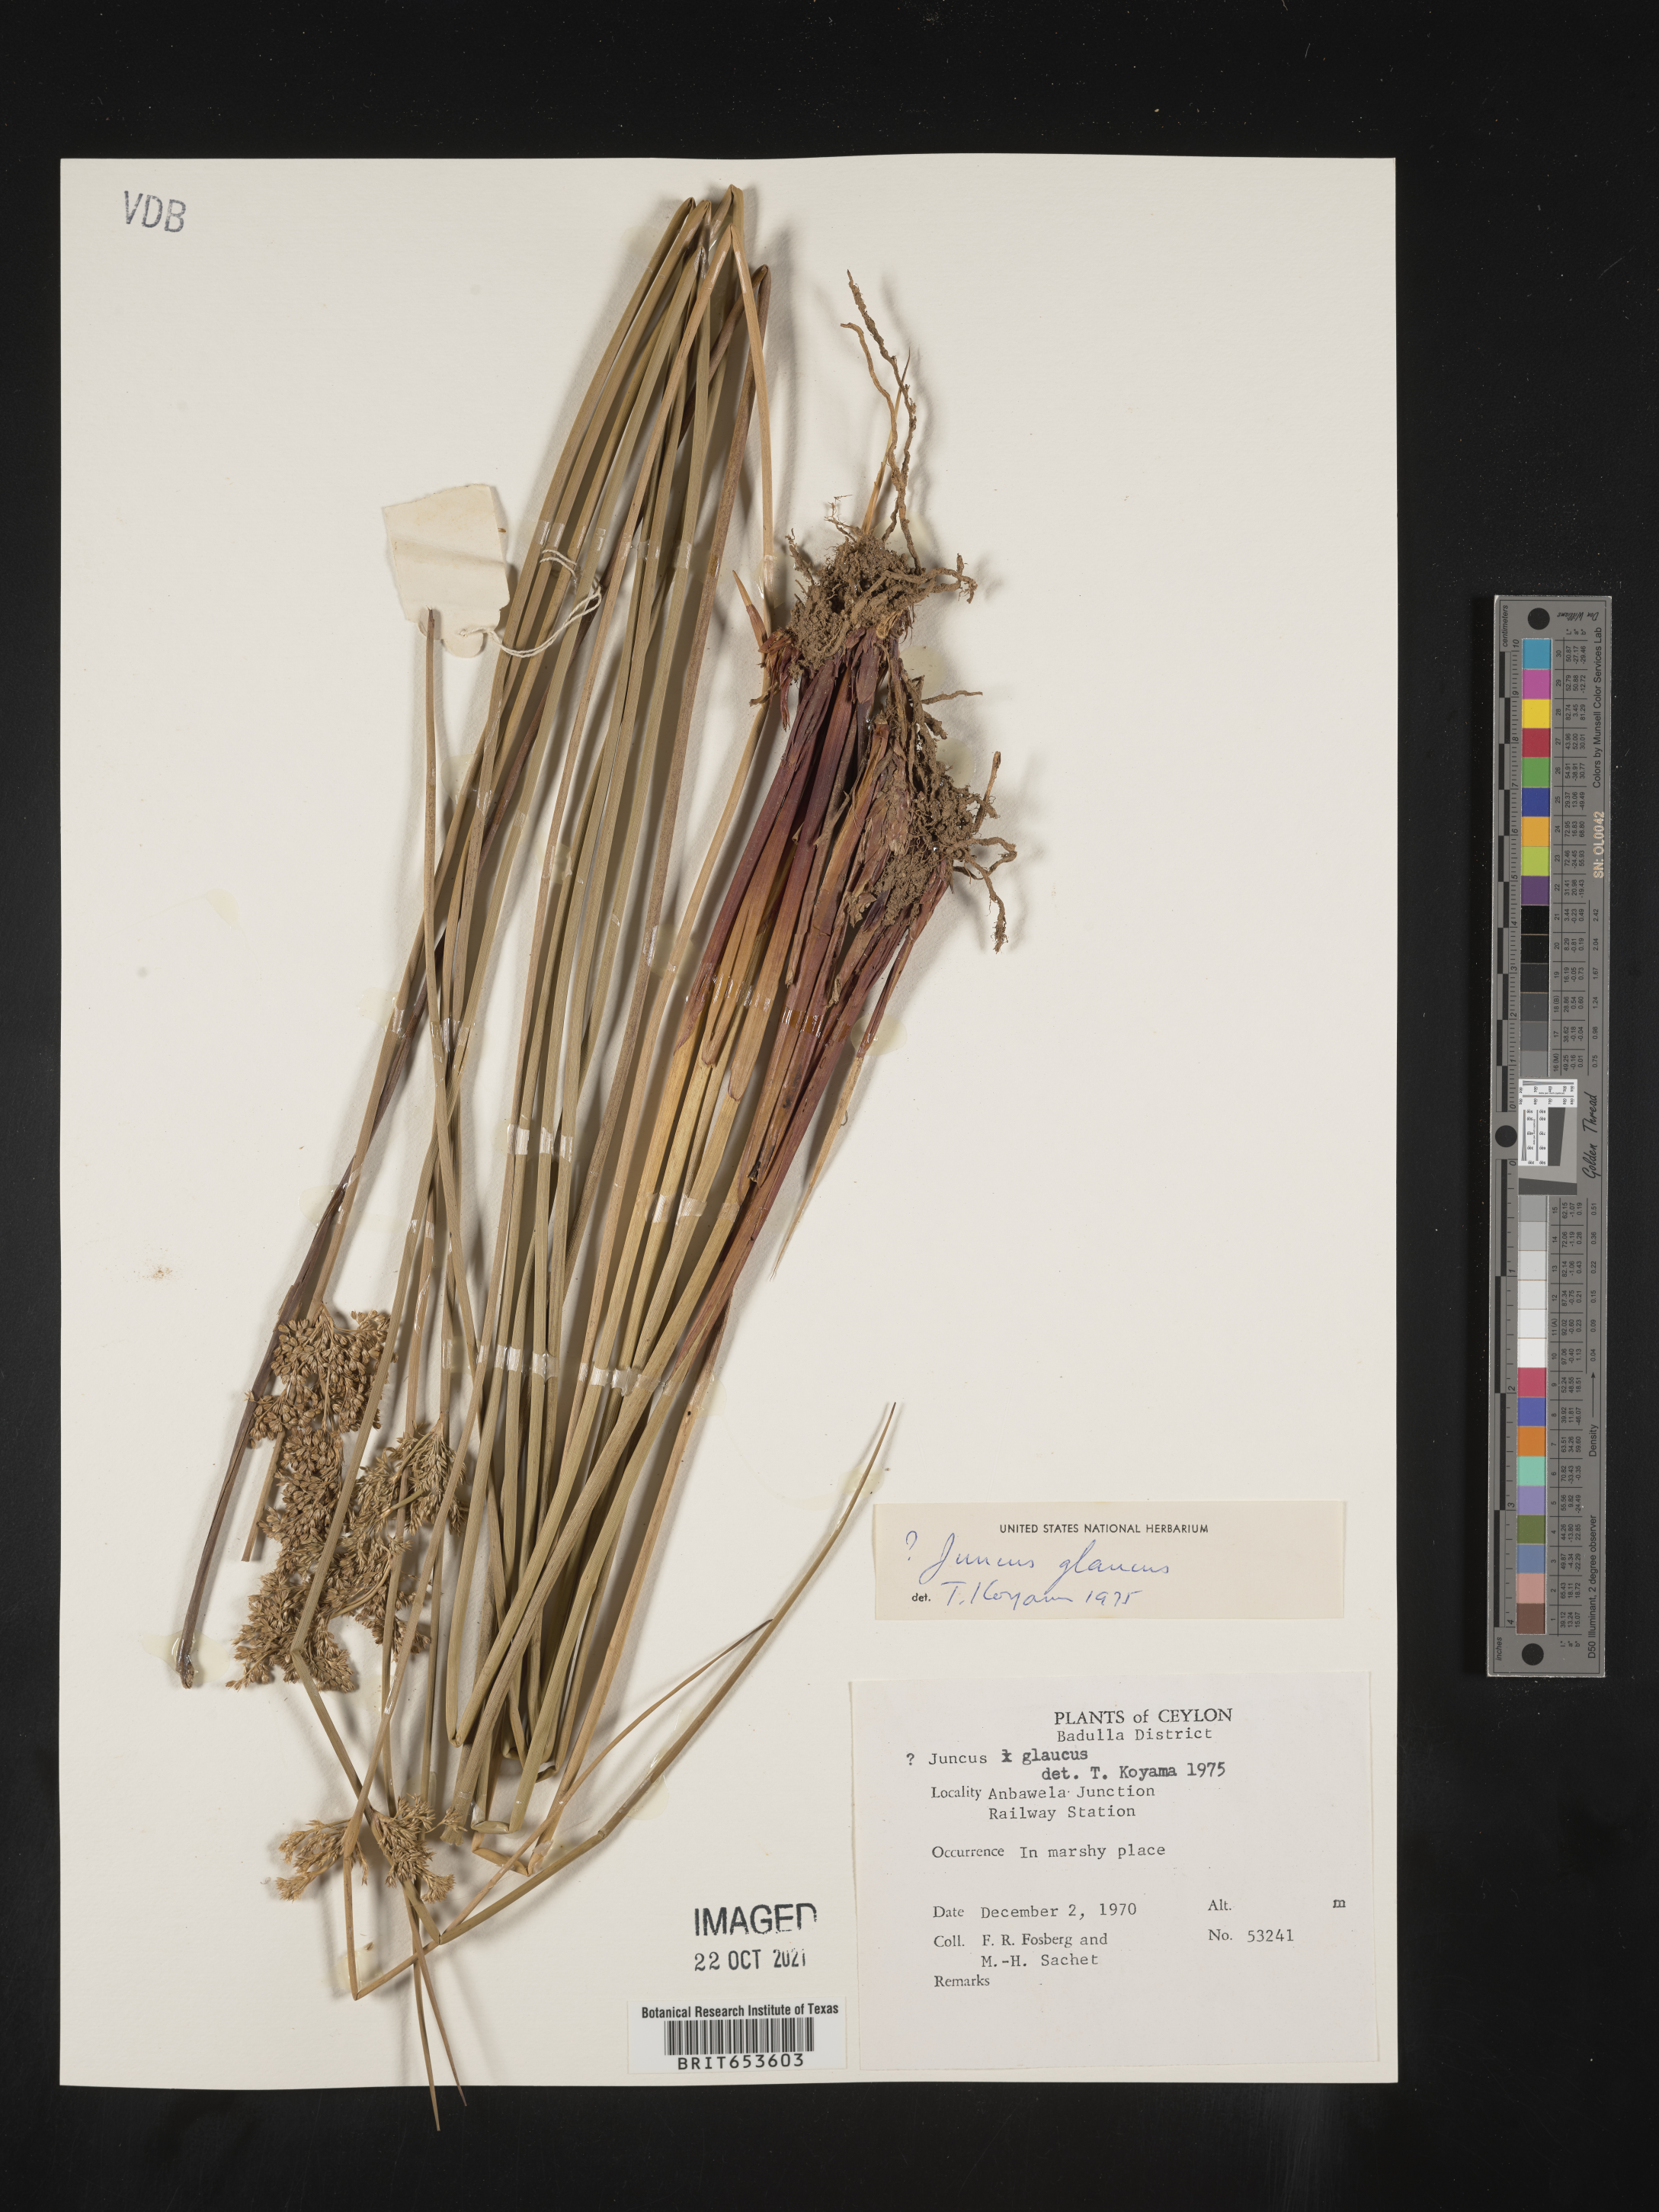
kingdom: Plantae
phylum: Tracheophyta
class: Liliopsida
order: Poales
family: Juncaceae
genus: Juncus
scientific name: Juncus
